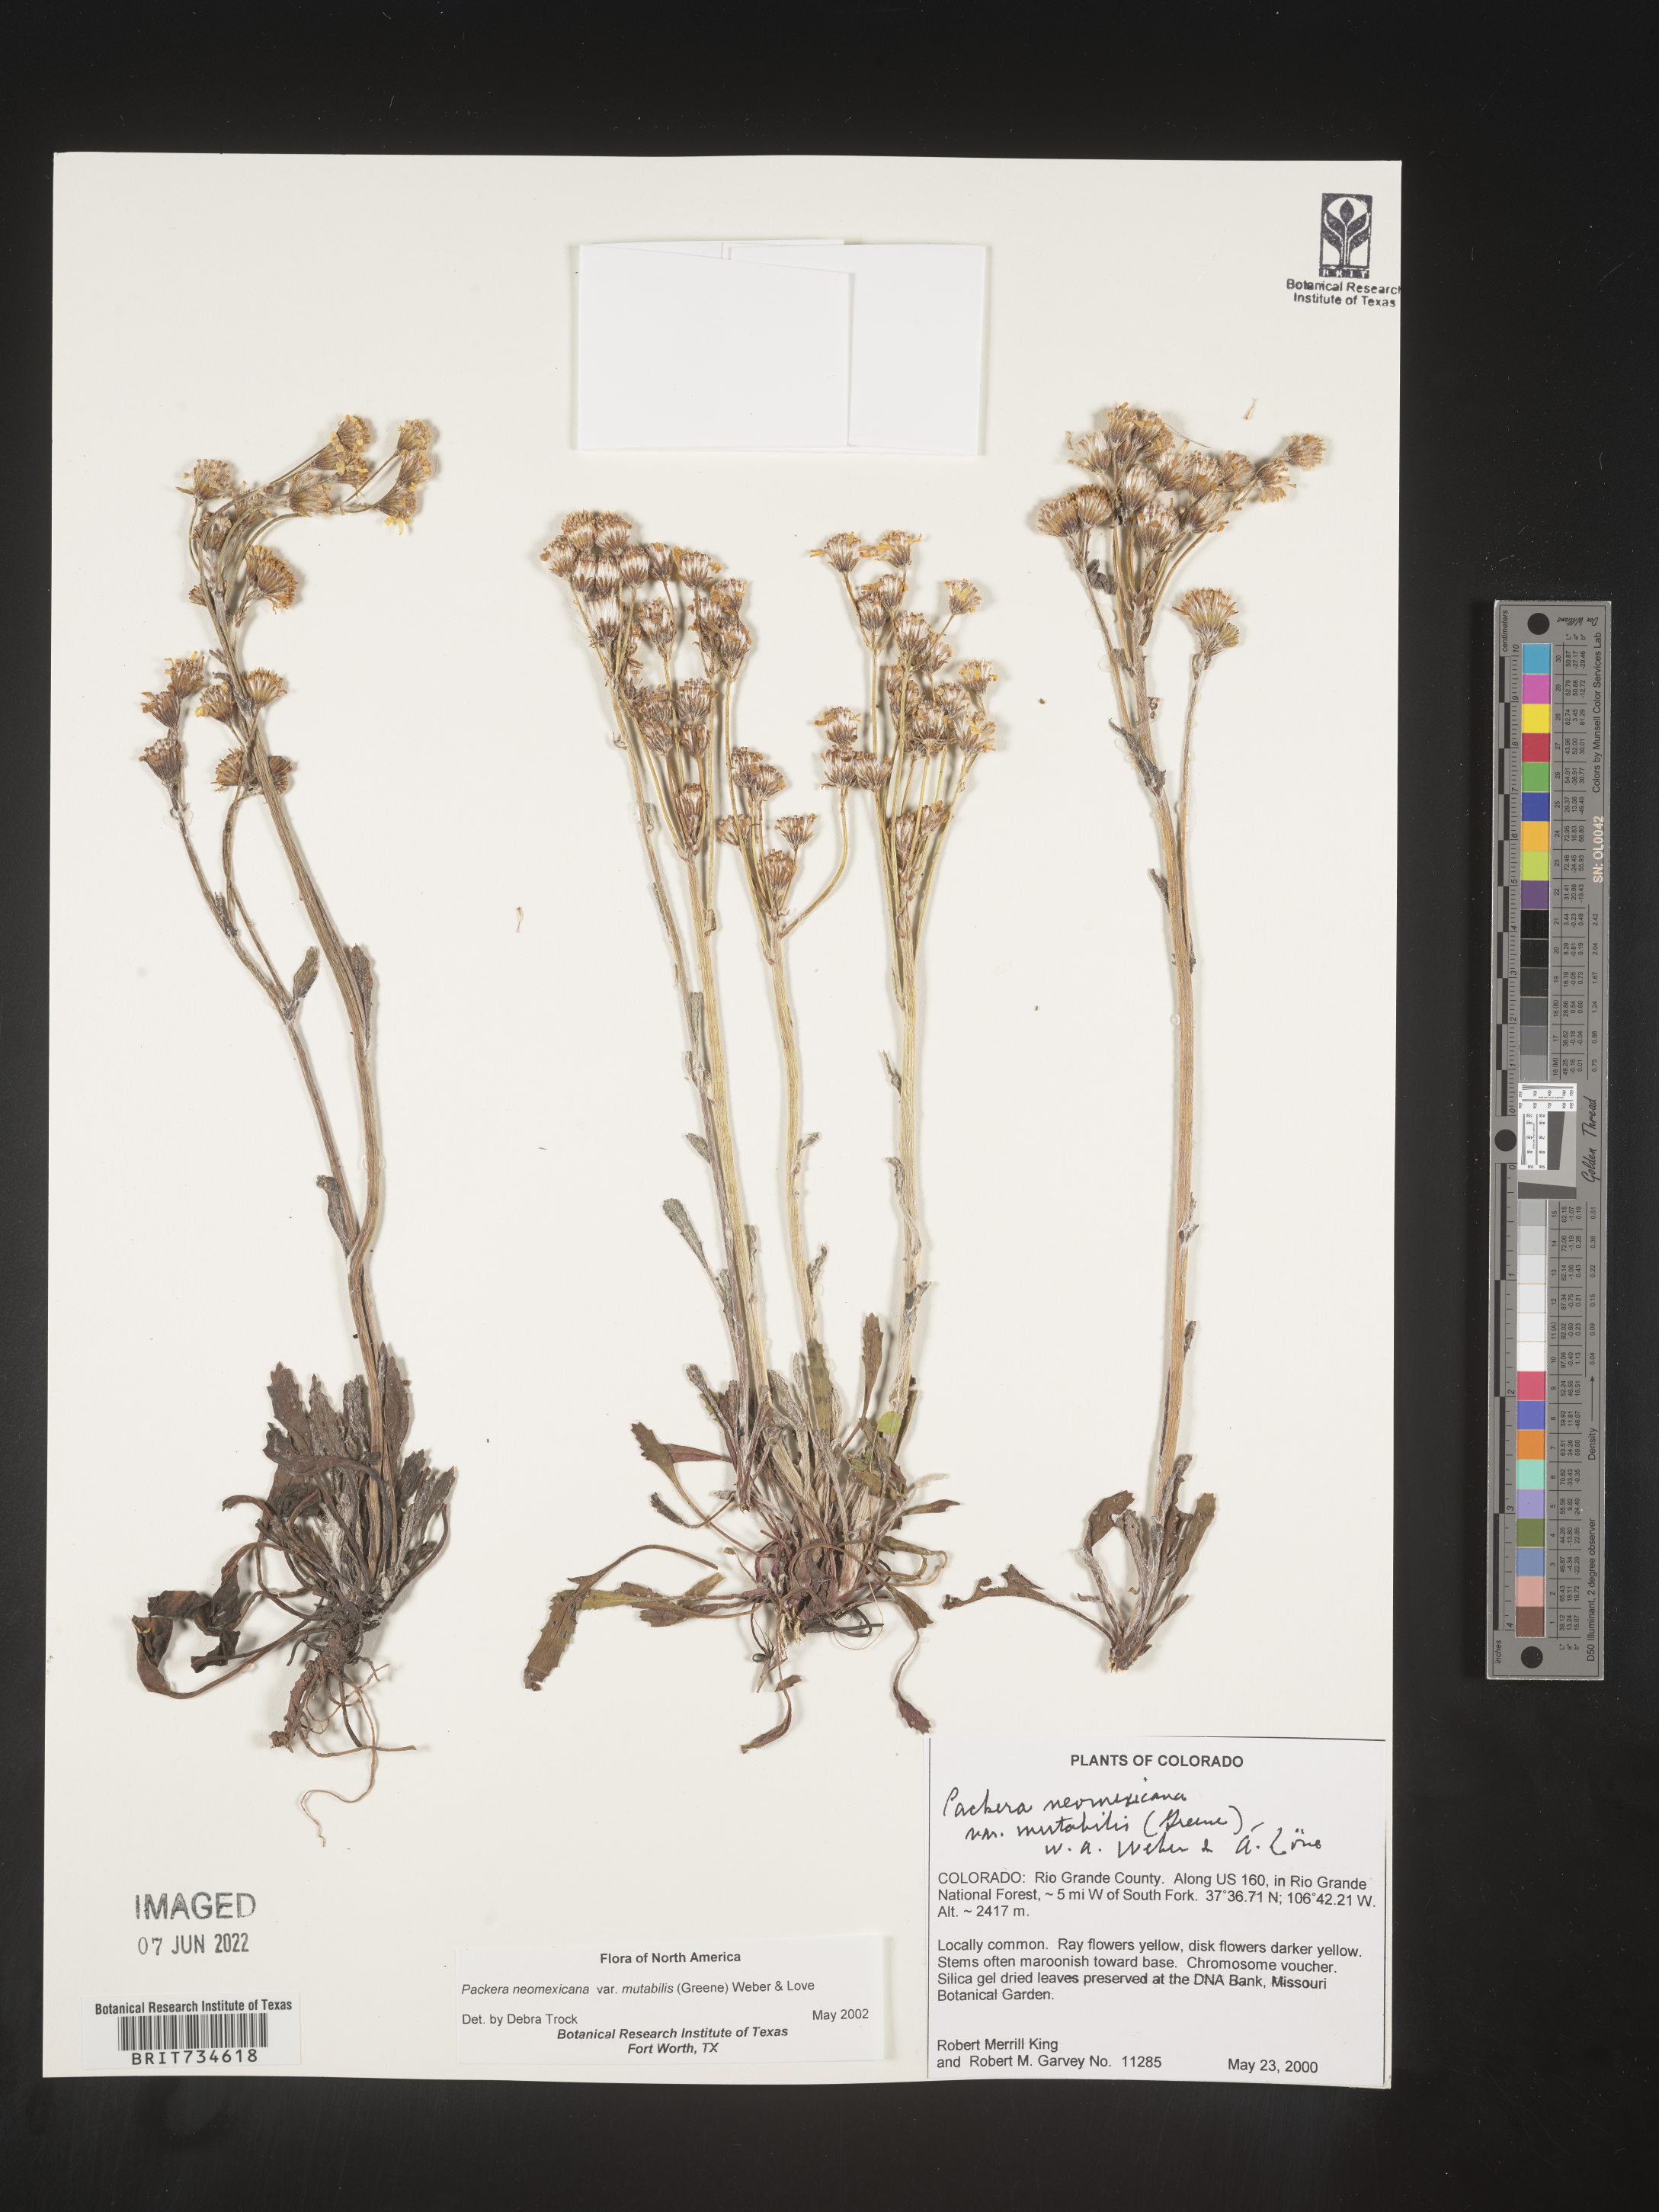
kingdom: Plantae
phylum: Tracheophyta
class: Magnoliopsida
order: Asterales
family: Asteraceae
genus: Packera
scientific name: Packera neomexicana
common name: New mexico butterweed
